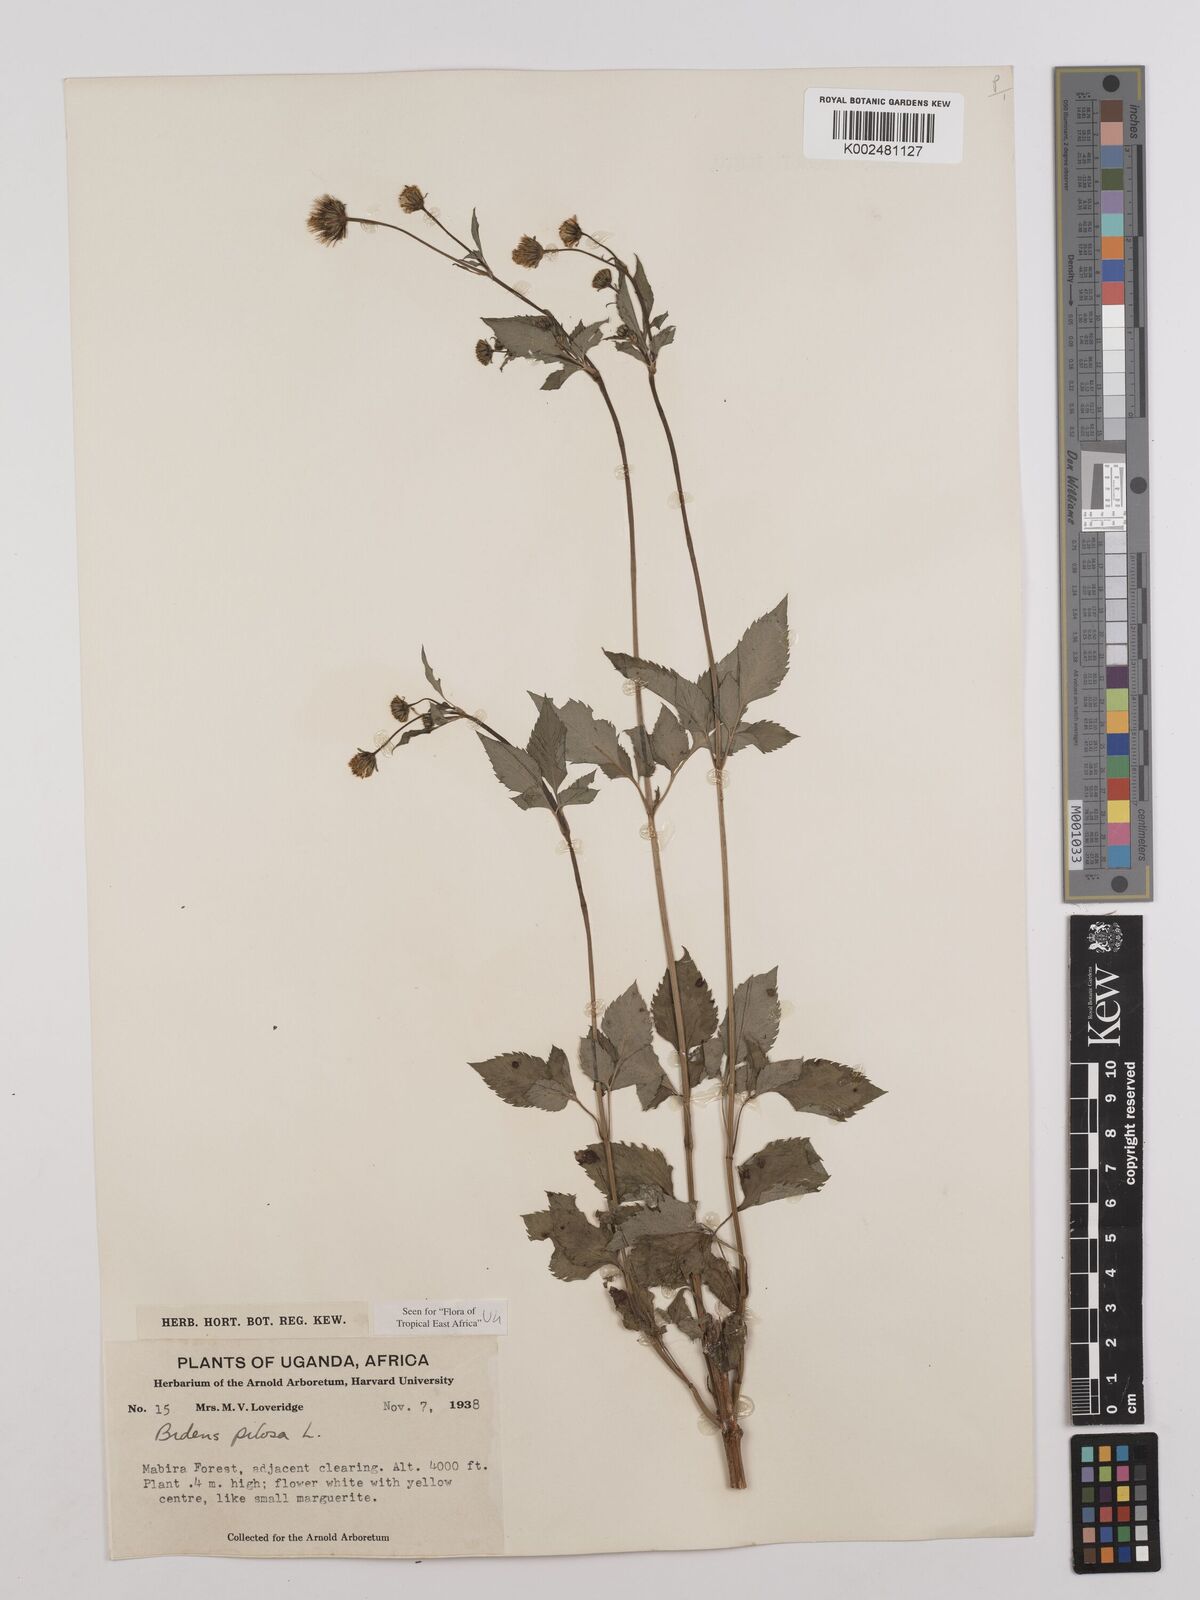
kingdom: Plantae
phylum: Tracheophyta
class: Magnoliopsida
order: Asterales
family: Asteraceae
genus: Bidens
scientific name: Bidens pilosa
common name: Black-jack
